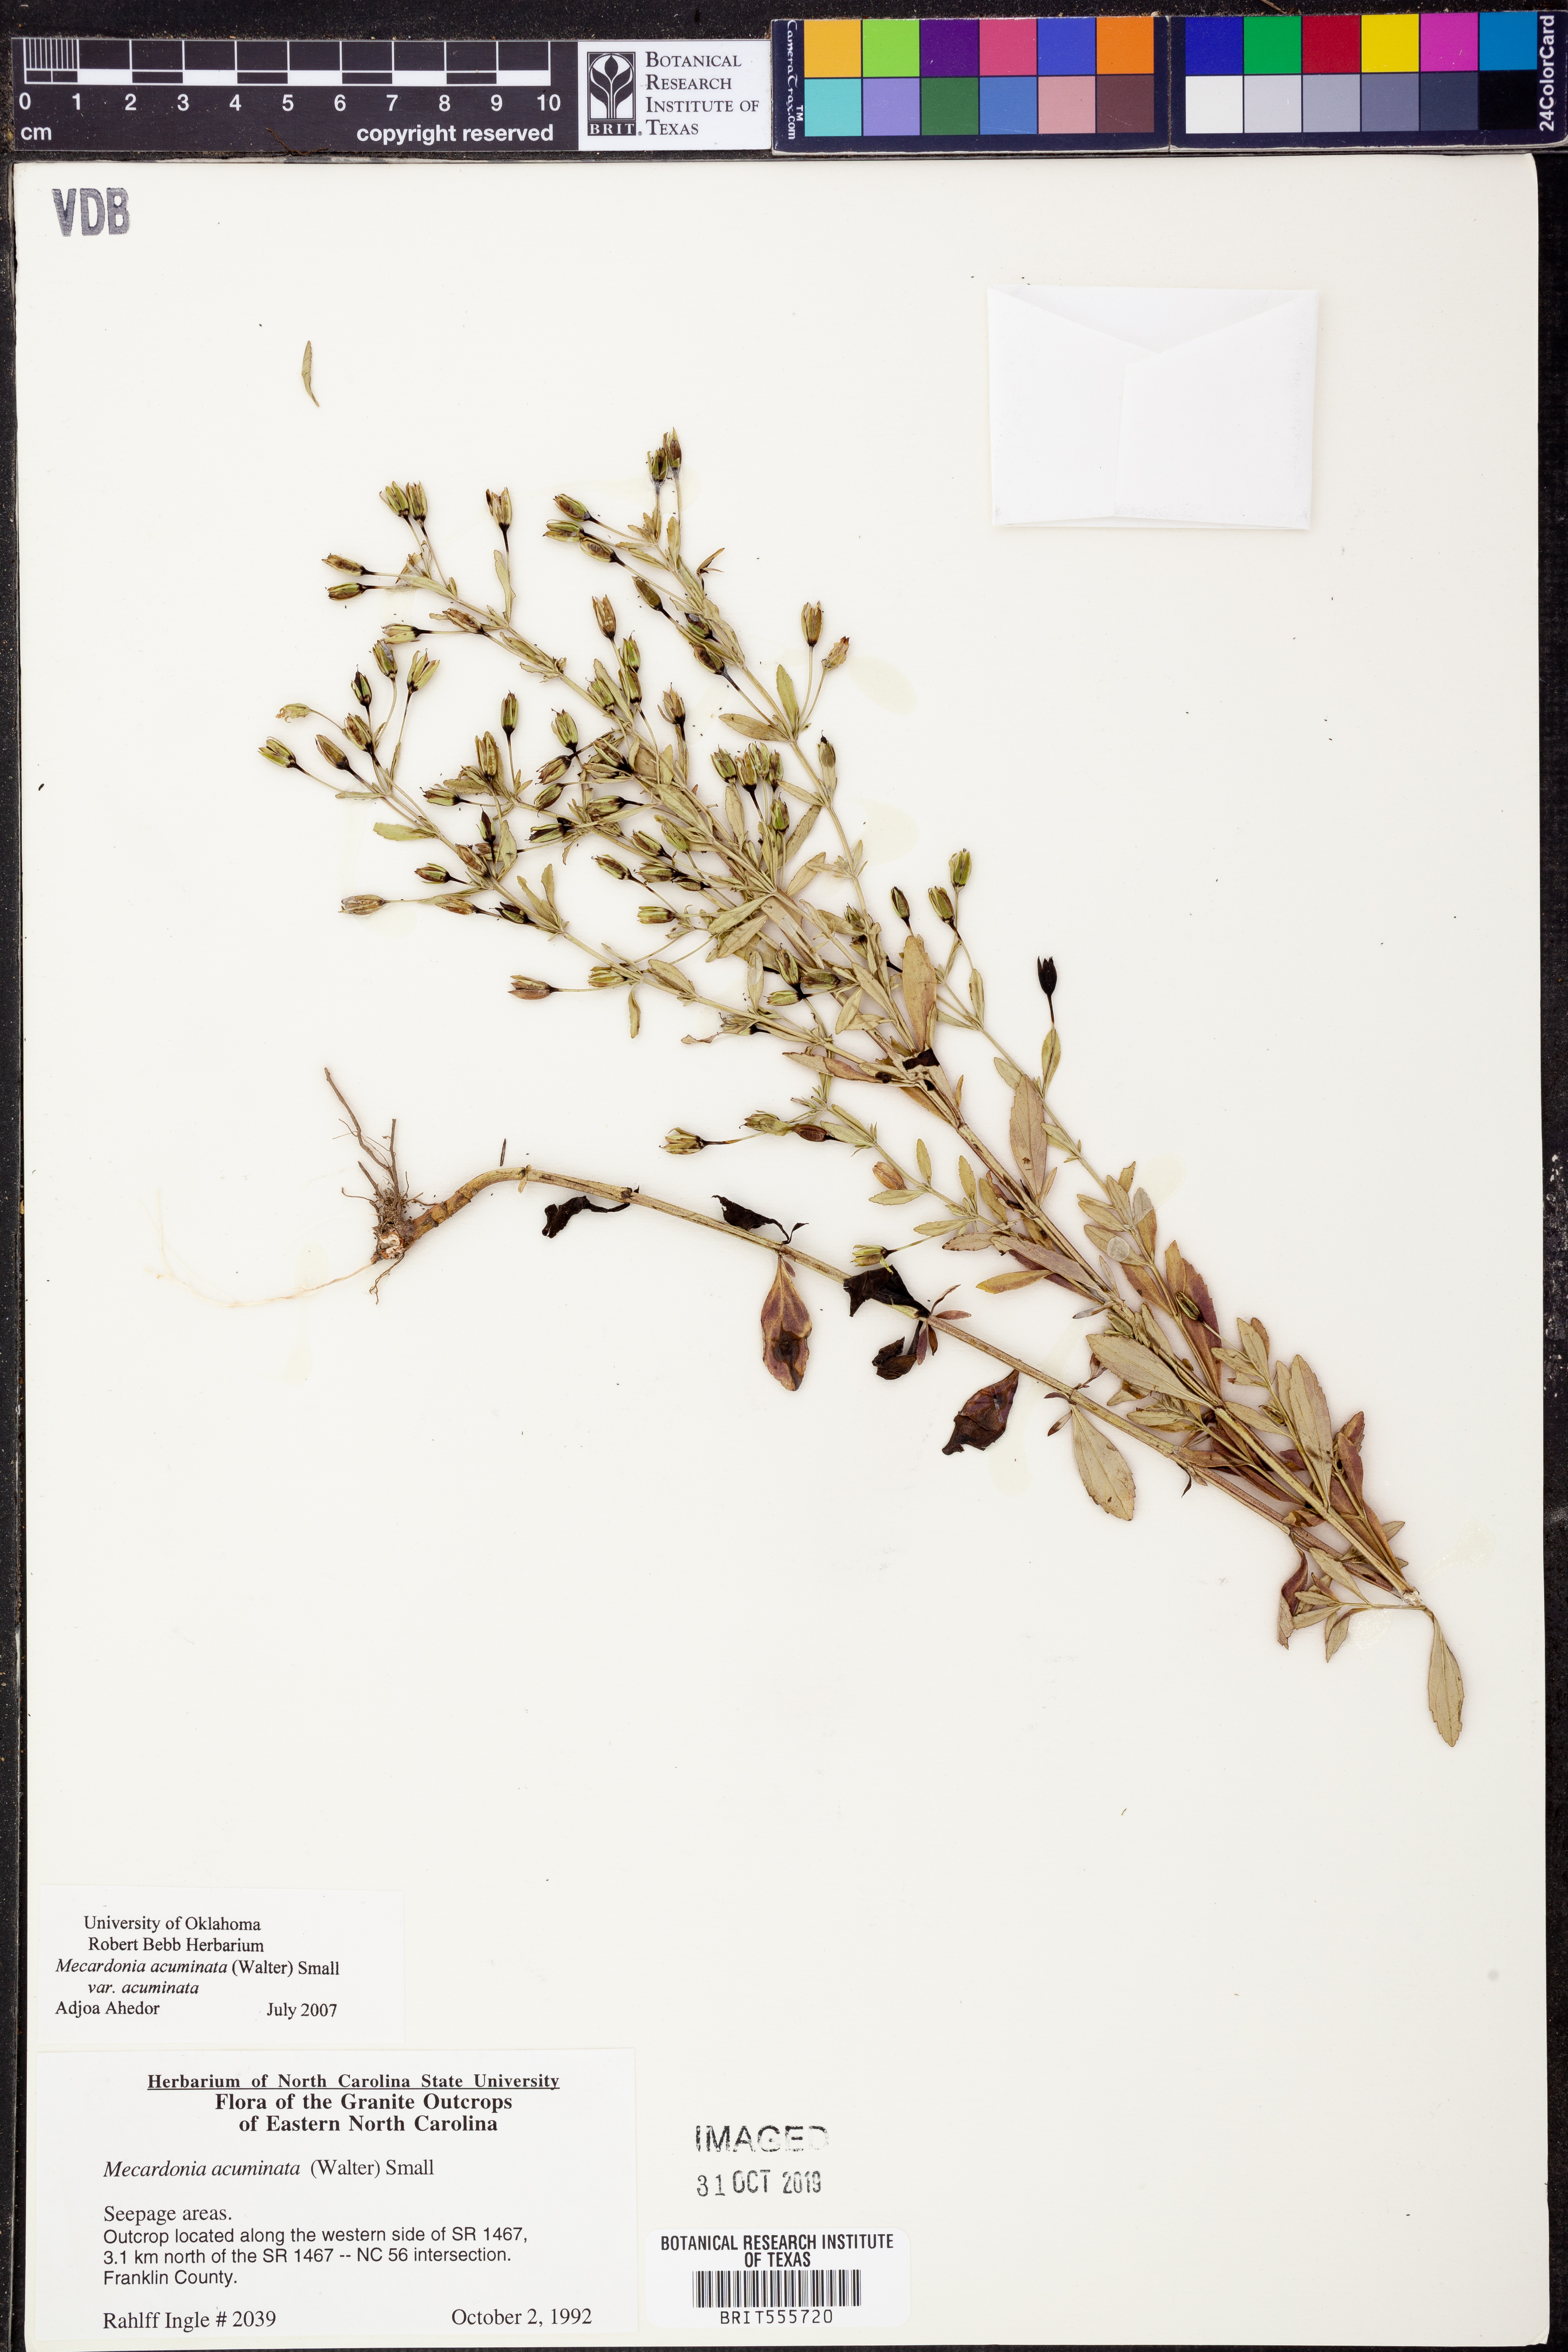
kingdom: Plantae
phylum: Tracheophyta
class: Magnoliopsida
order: Lamiales
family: Plantaginaceae
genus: Mecardonia
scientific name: Mecardonia acuminata
